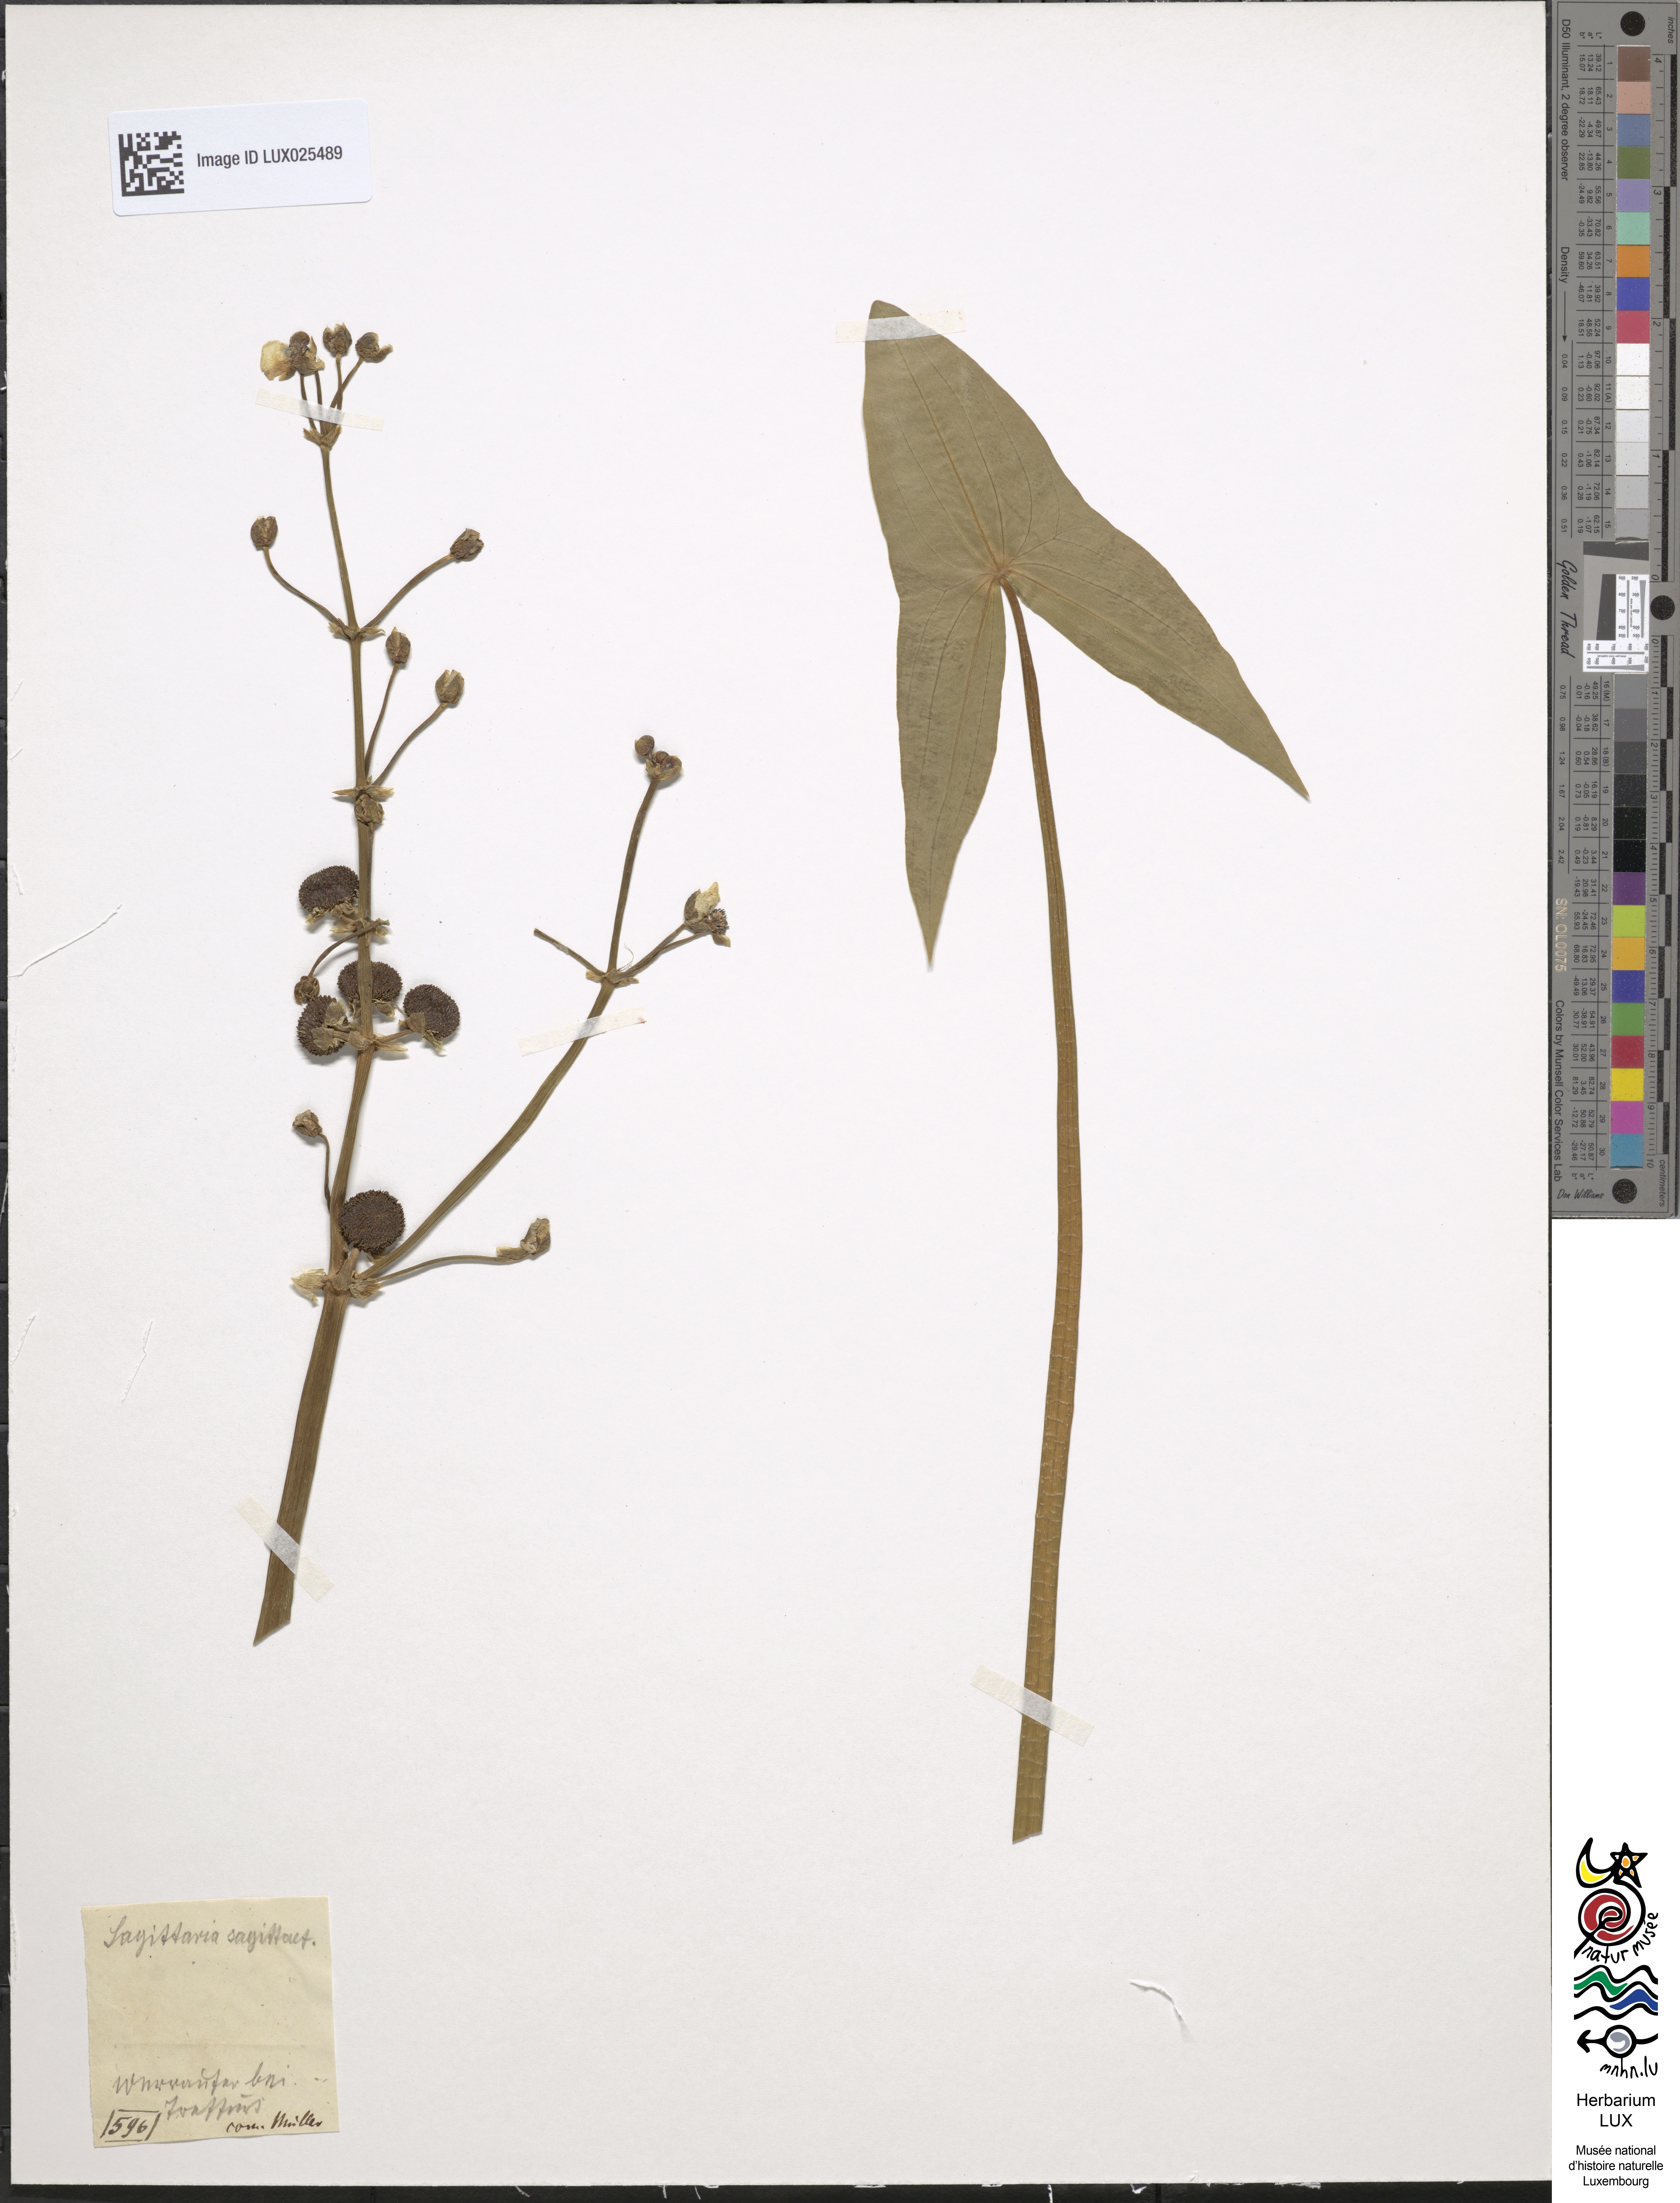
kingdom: Plantae
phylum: Tracheophyta
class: Liliopsida
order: Alismatales
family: Alismataceae
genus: Sagittaria
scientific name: Sagittaria sagittifolia
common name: Arrowhead
